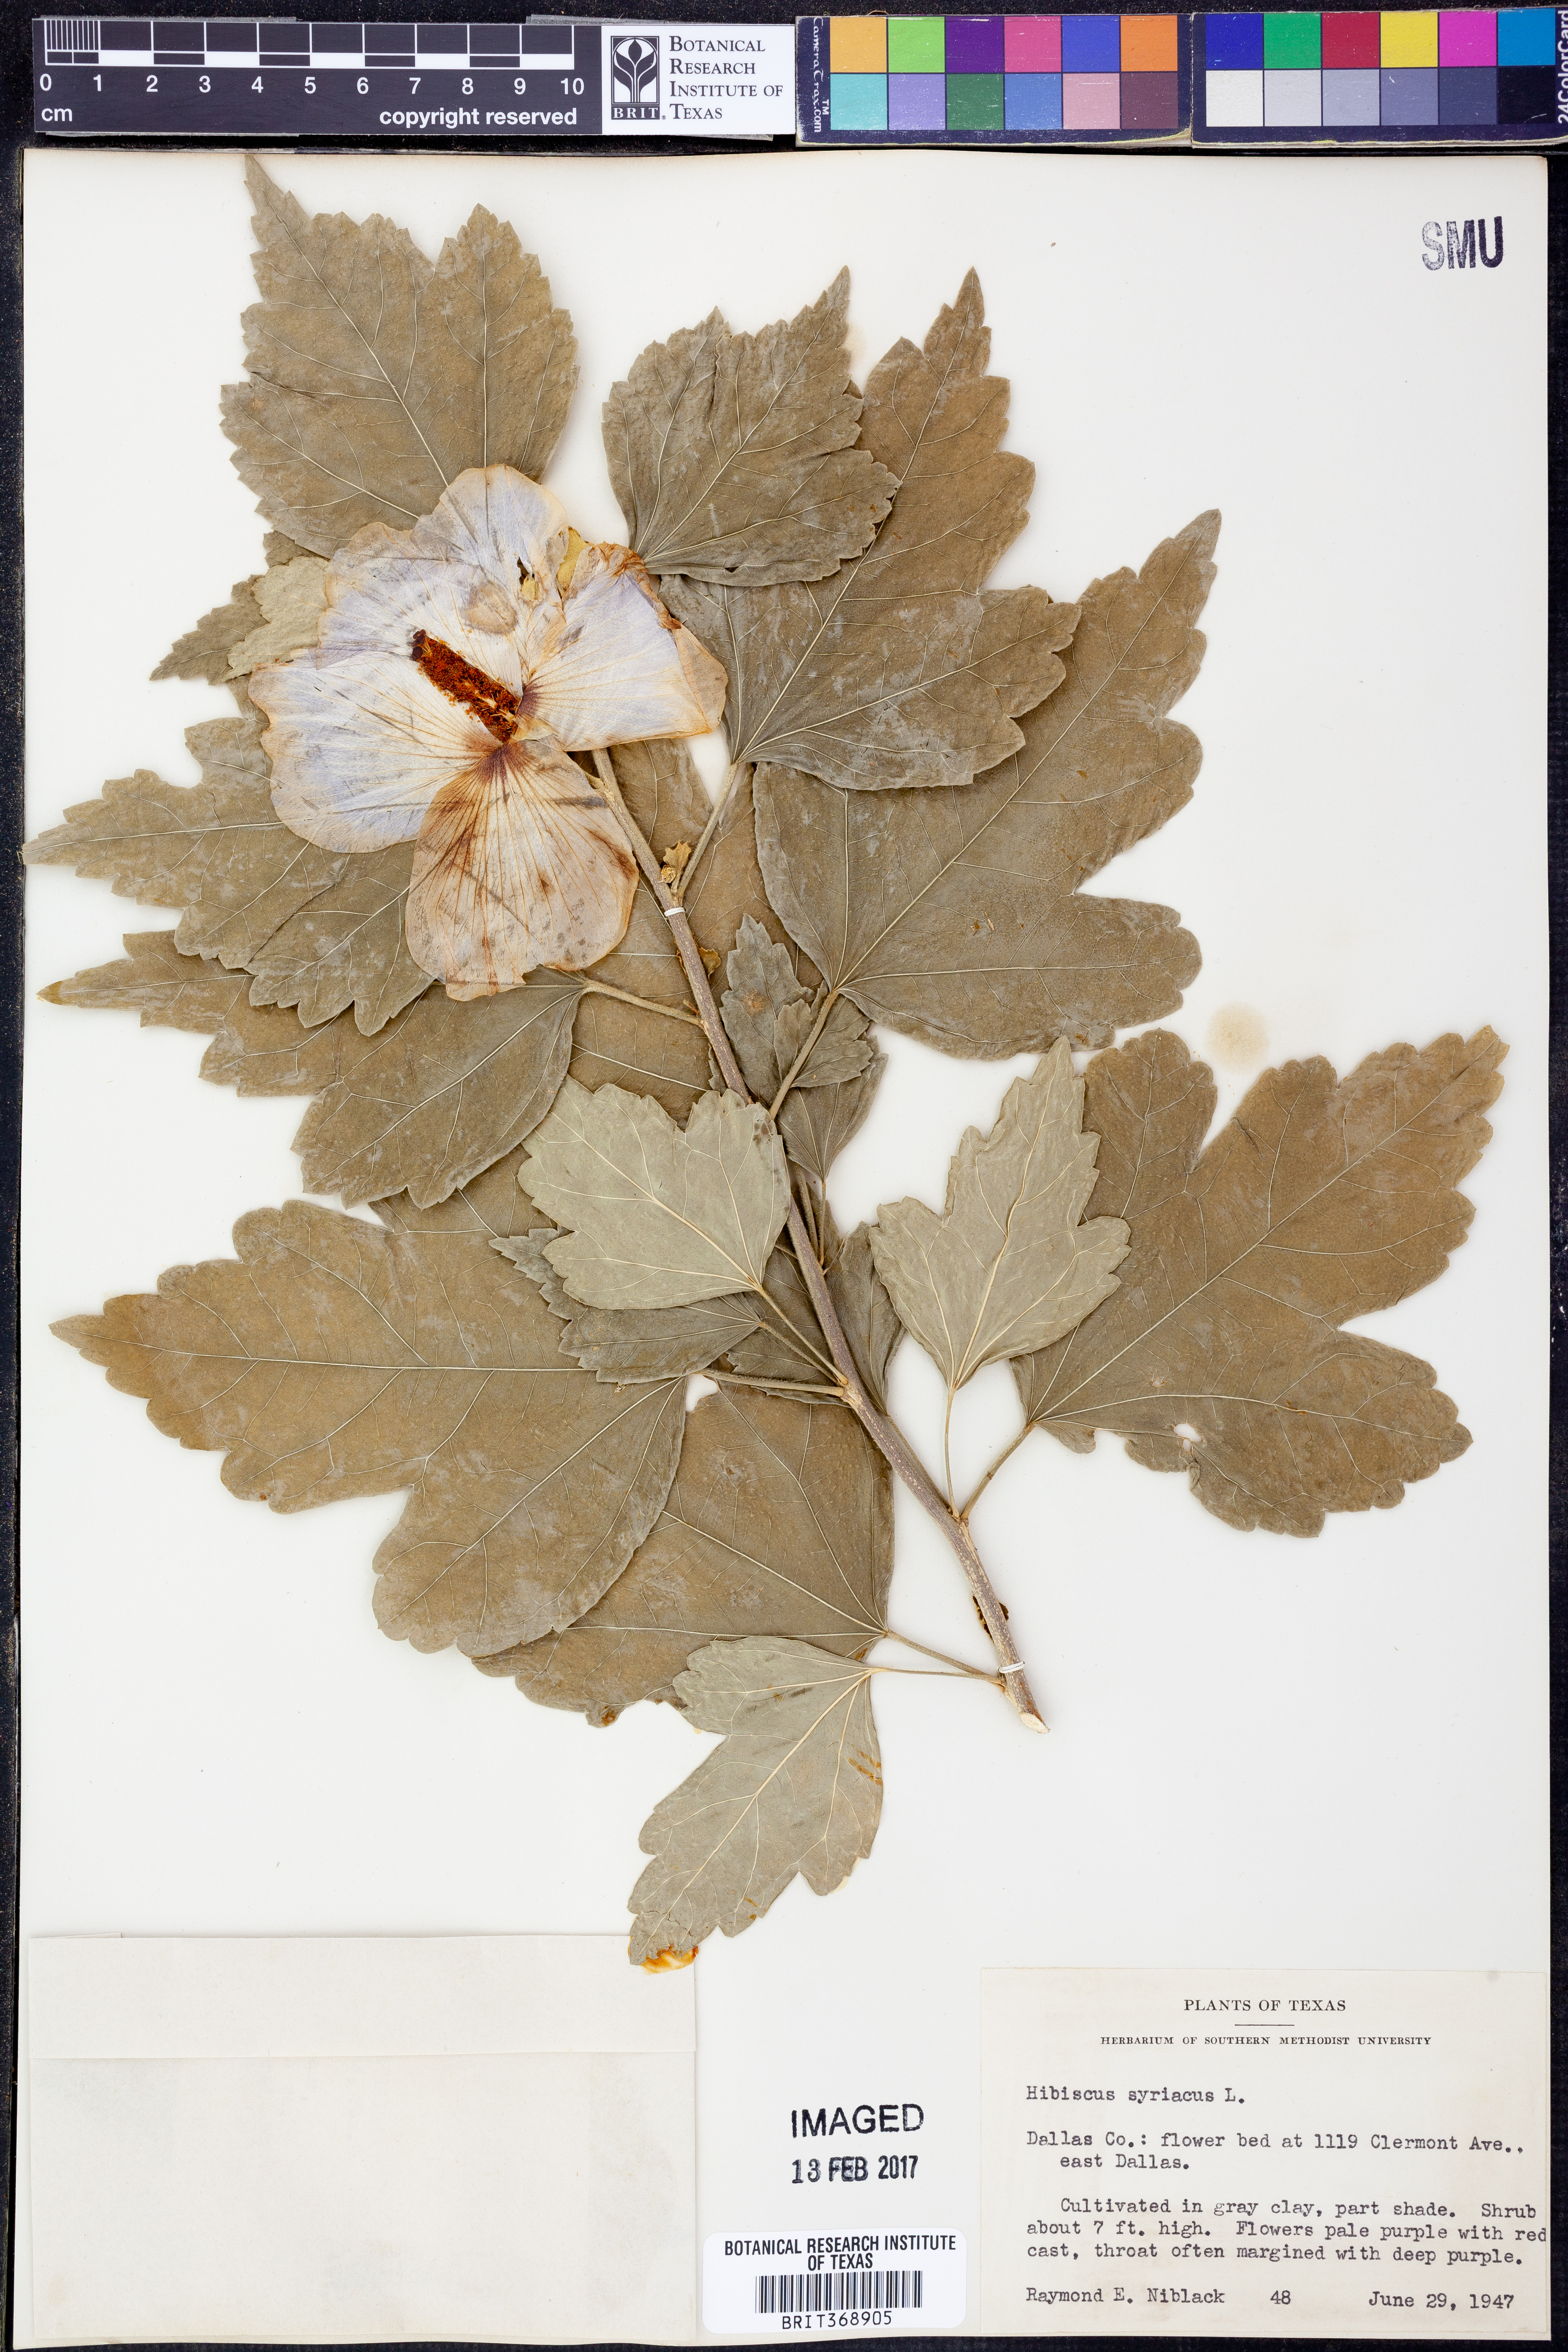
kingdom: Plantae
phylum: Tracheophyta
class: Magnoliopsida
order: Malvales
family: Malvaceae
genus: Hibiscus
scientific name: Hibiscus syriacus
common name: Syrian ketmia
